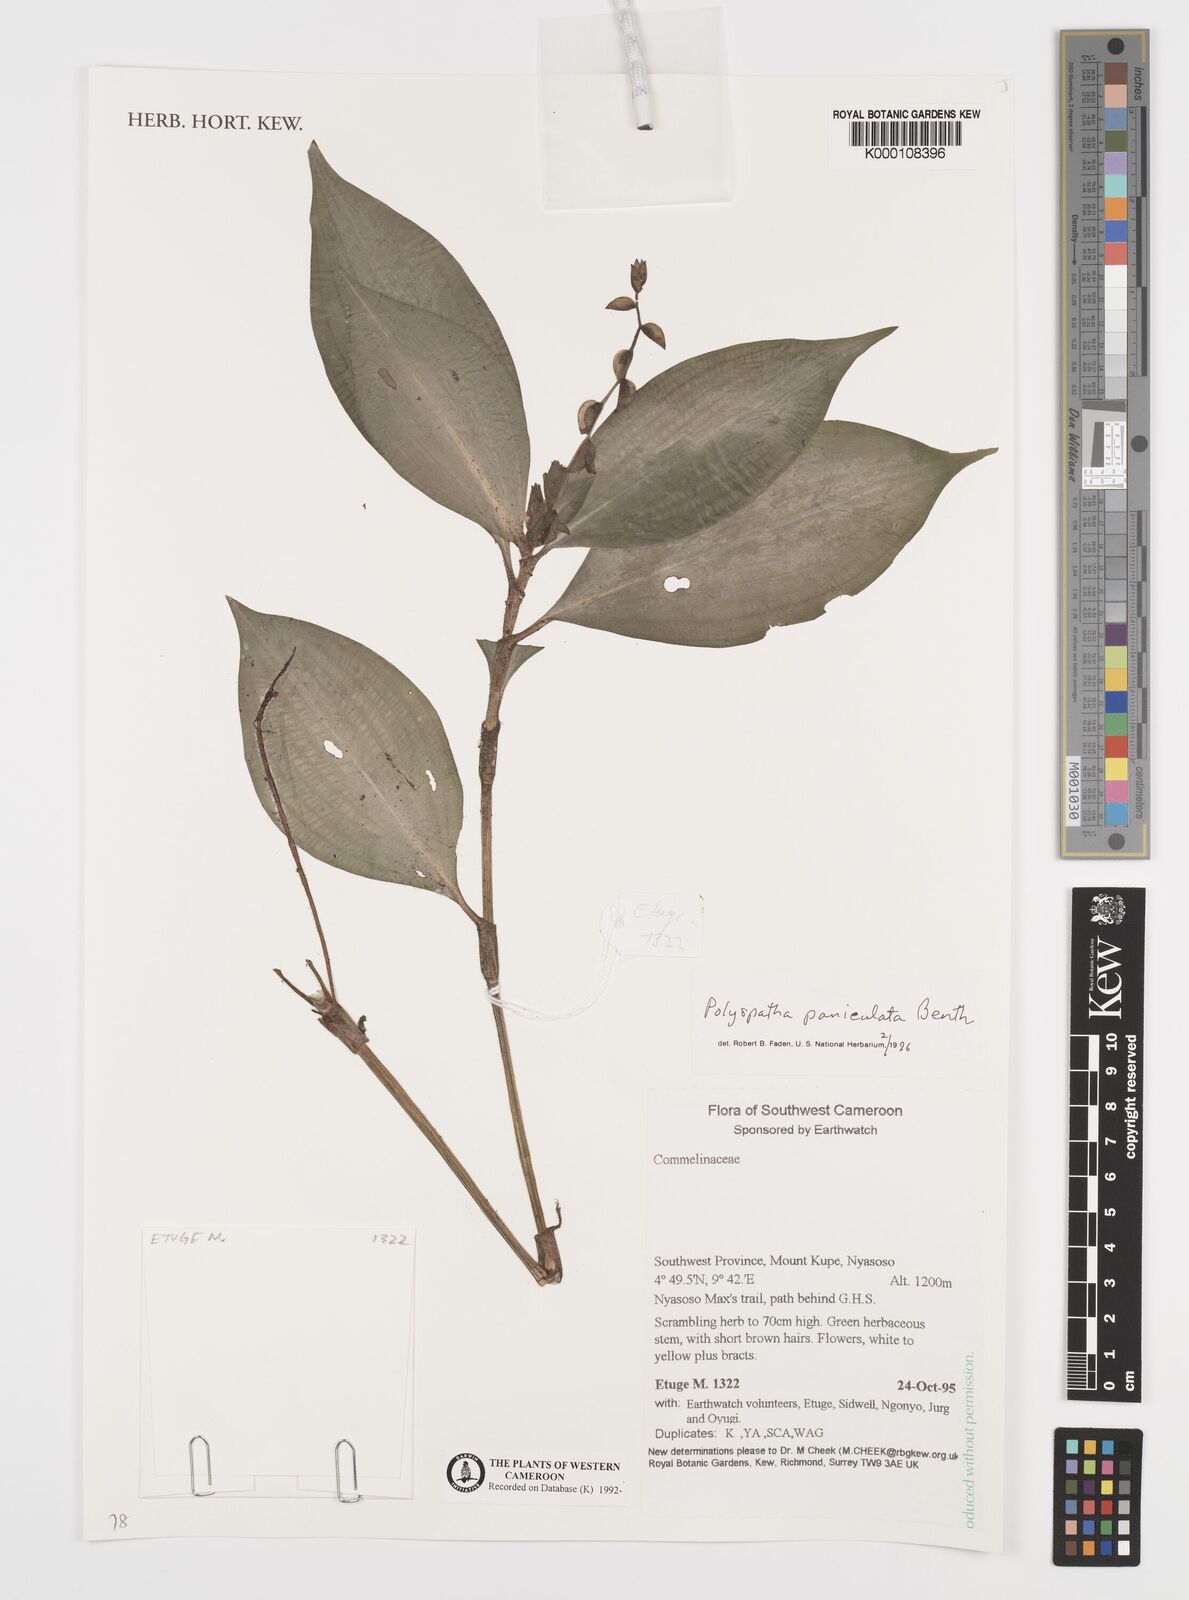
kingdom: Plantae
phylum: Tracheophyta
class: Liliopsida
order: Commelinales
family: Commelinaceae
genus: Polyspatha
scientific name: Polyspatha paniculata
